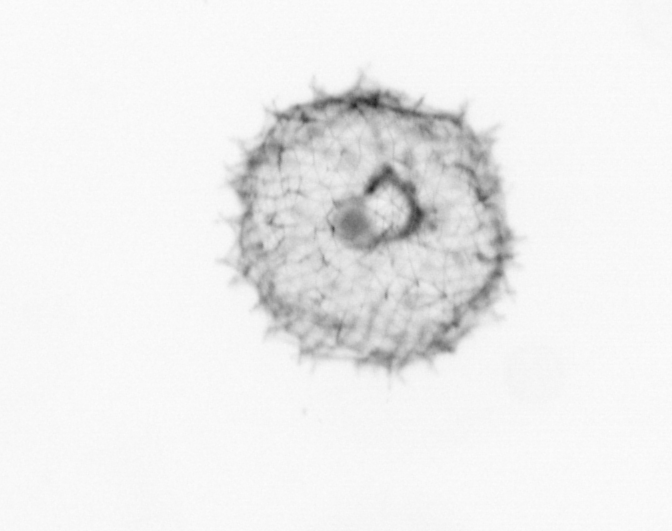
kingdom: Chromista
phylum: Ochrophyta
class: Bacillariophyceae
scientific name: Bacillariophyceae
